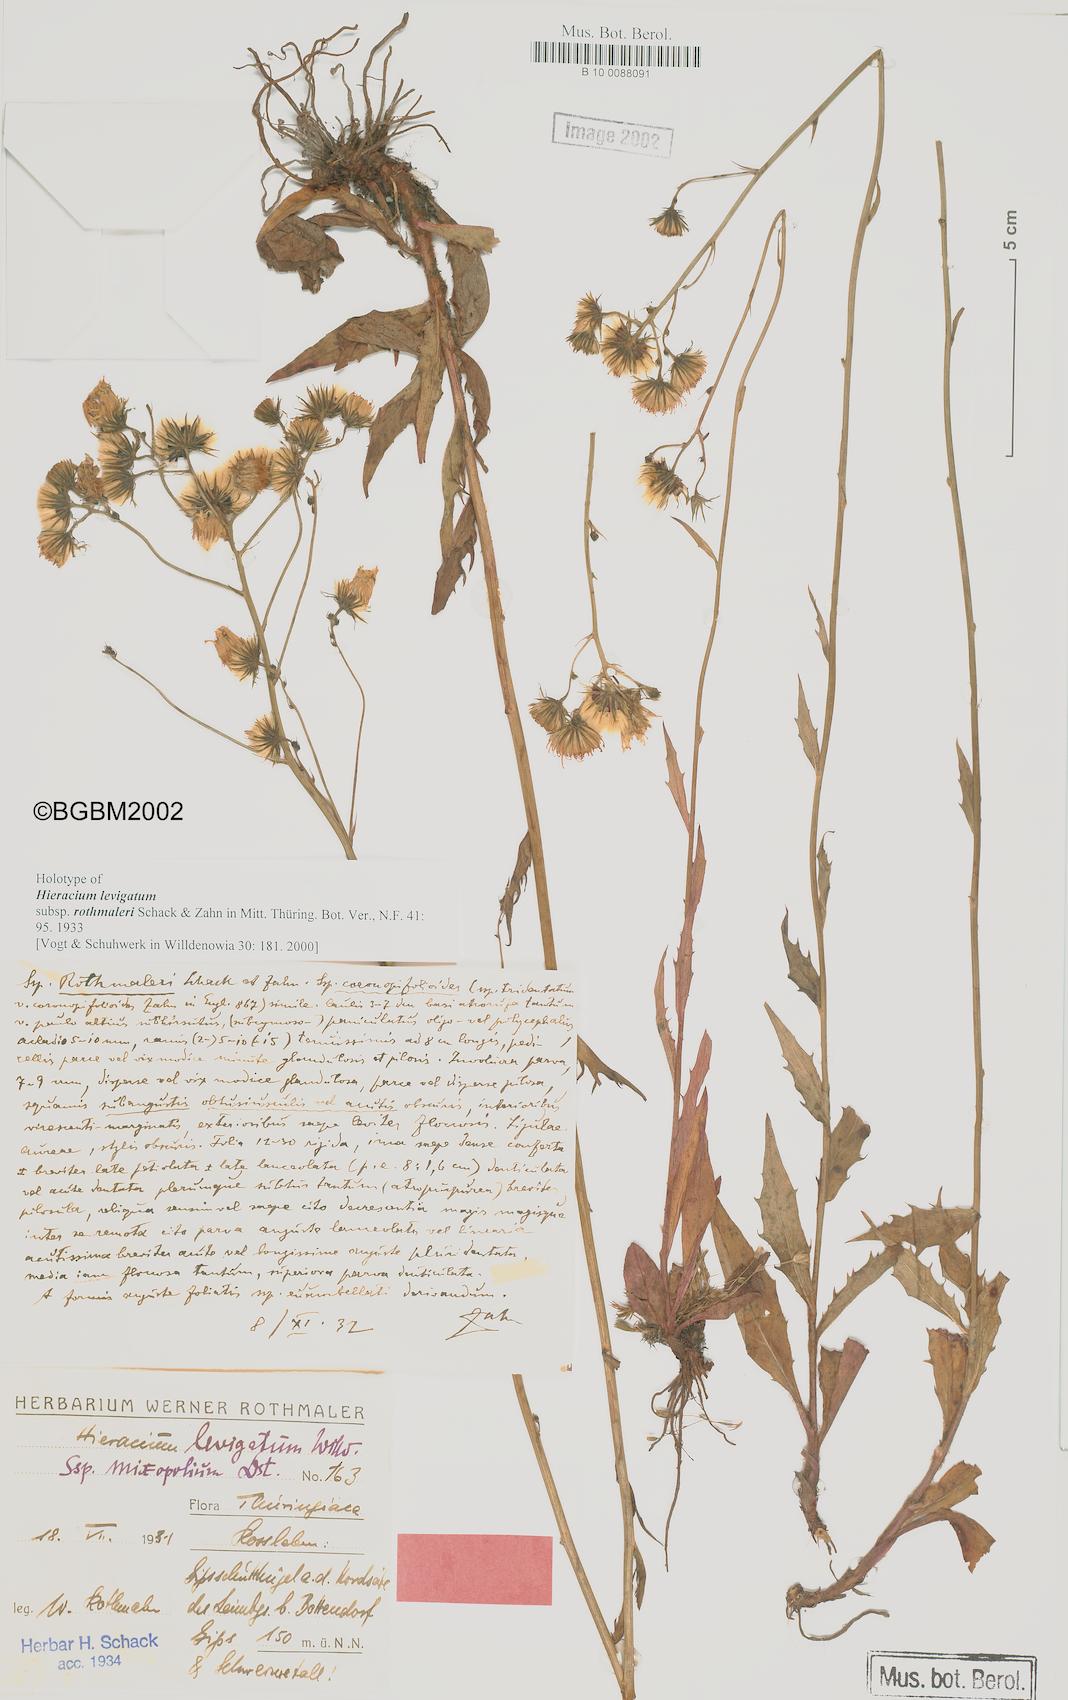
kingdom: Plantae
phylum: Tracheophyta
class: Magnoliopsida
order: Asterales
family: Asteraceae
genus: Hieracium
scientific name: Hieracium laevigatum
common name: Smooth hawkweed
